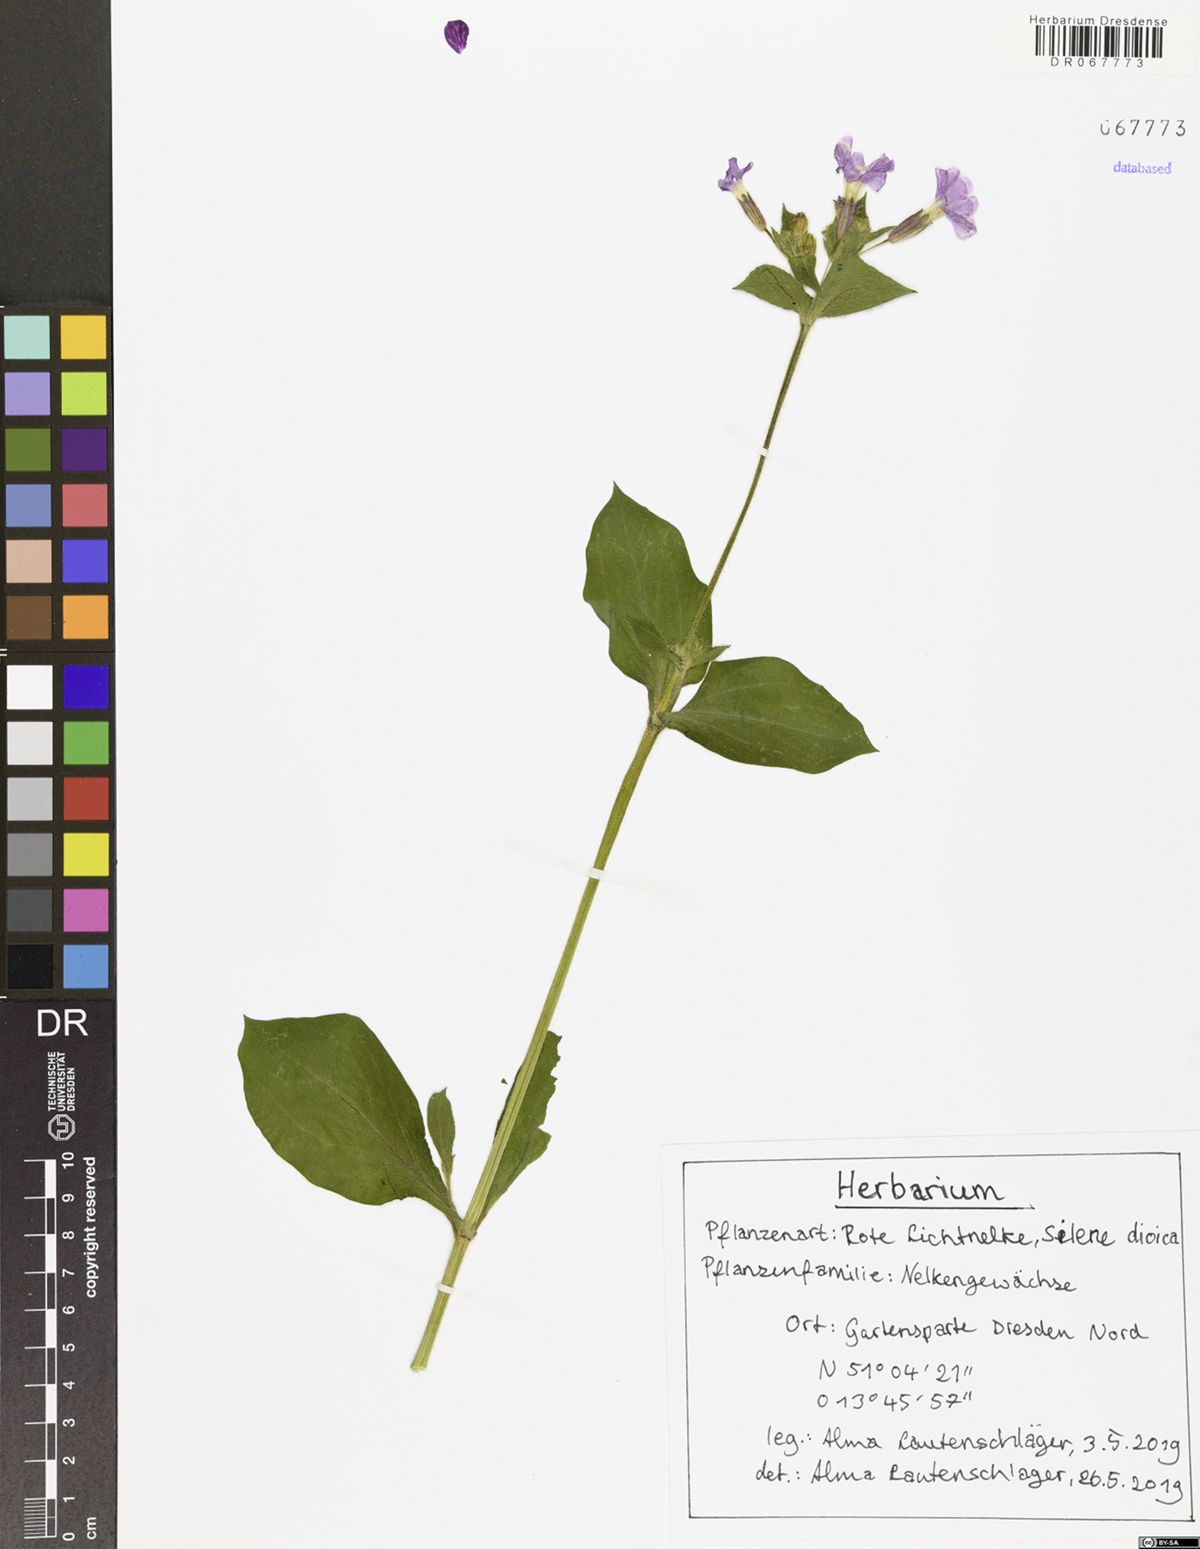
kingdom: Plantae
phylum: Tracheophyta
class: Magnoliopsida
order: Caryophyllales
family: Caryophyllaceae
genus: Silene
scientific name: Silene dioica
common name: Red campion
